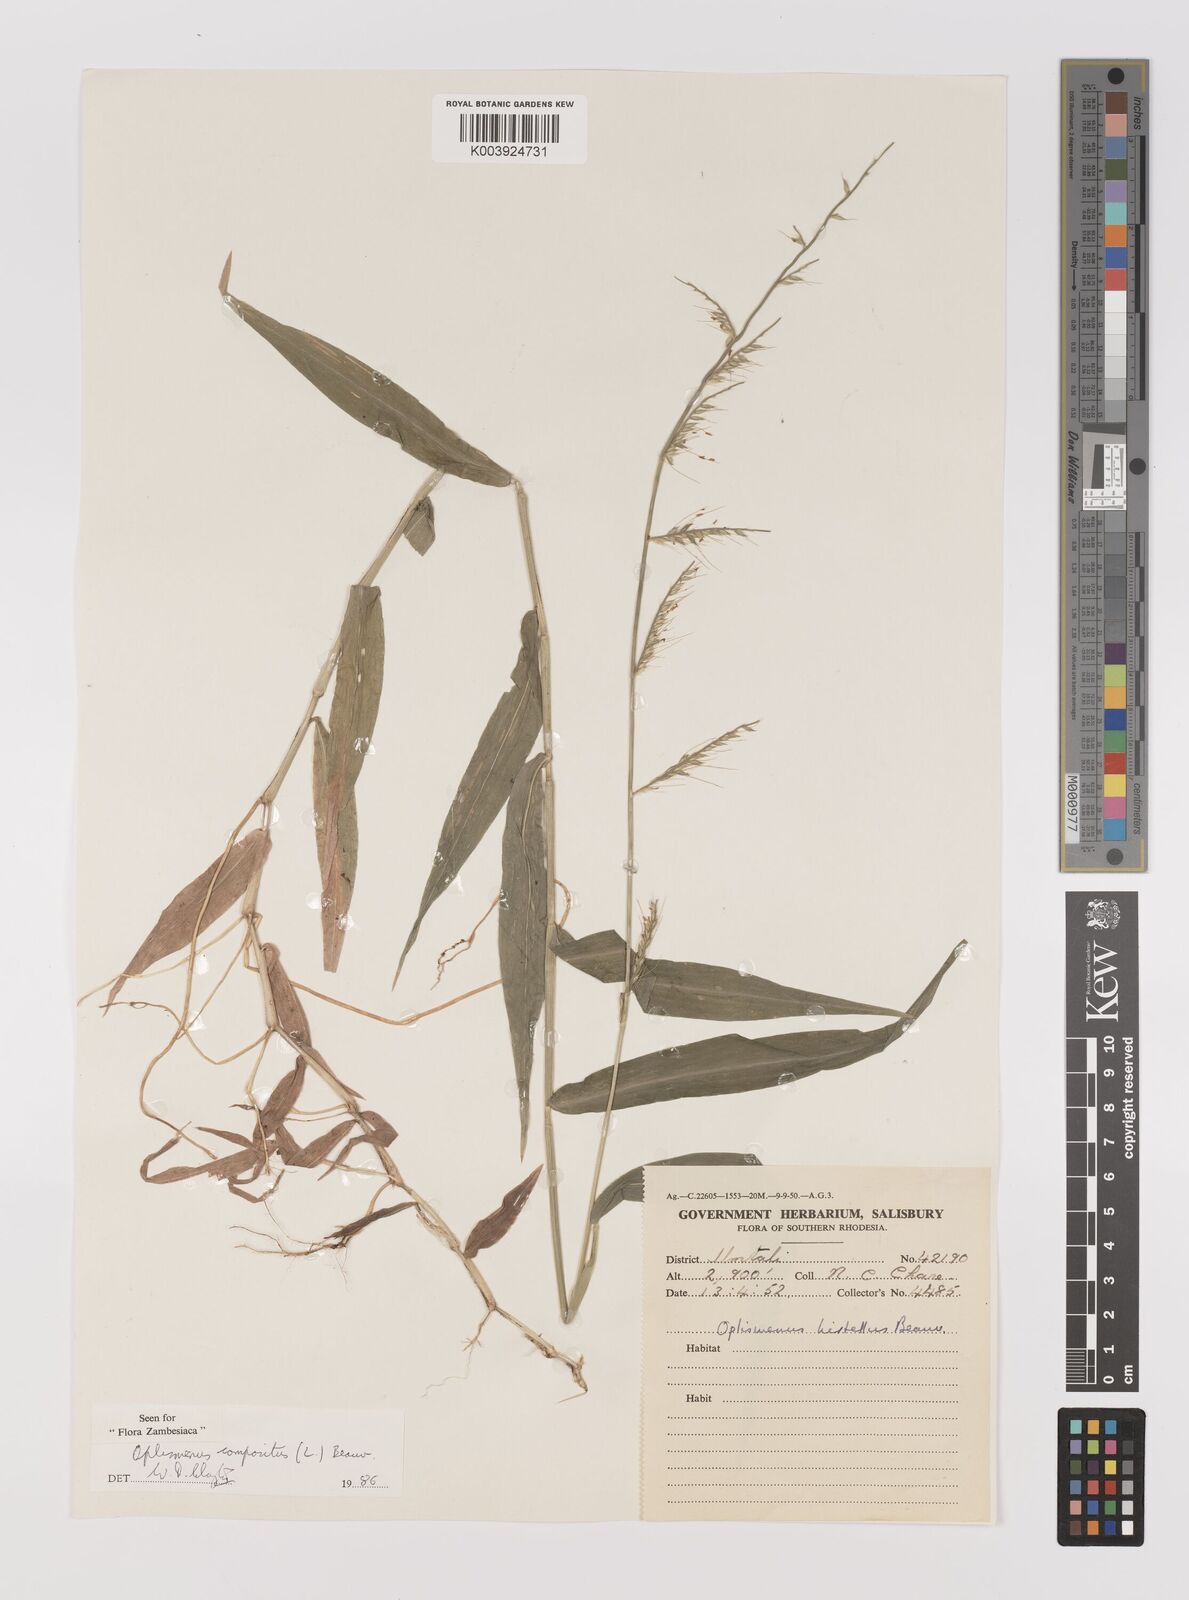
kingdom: Plantae
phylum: Tracheophyta
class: Liliopsida
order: Poales
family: Poaceae
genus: Oplismenus
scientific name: Oplismenus compositus
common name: Running mountain grass
